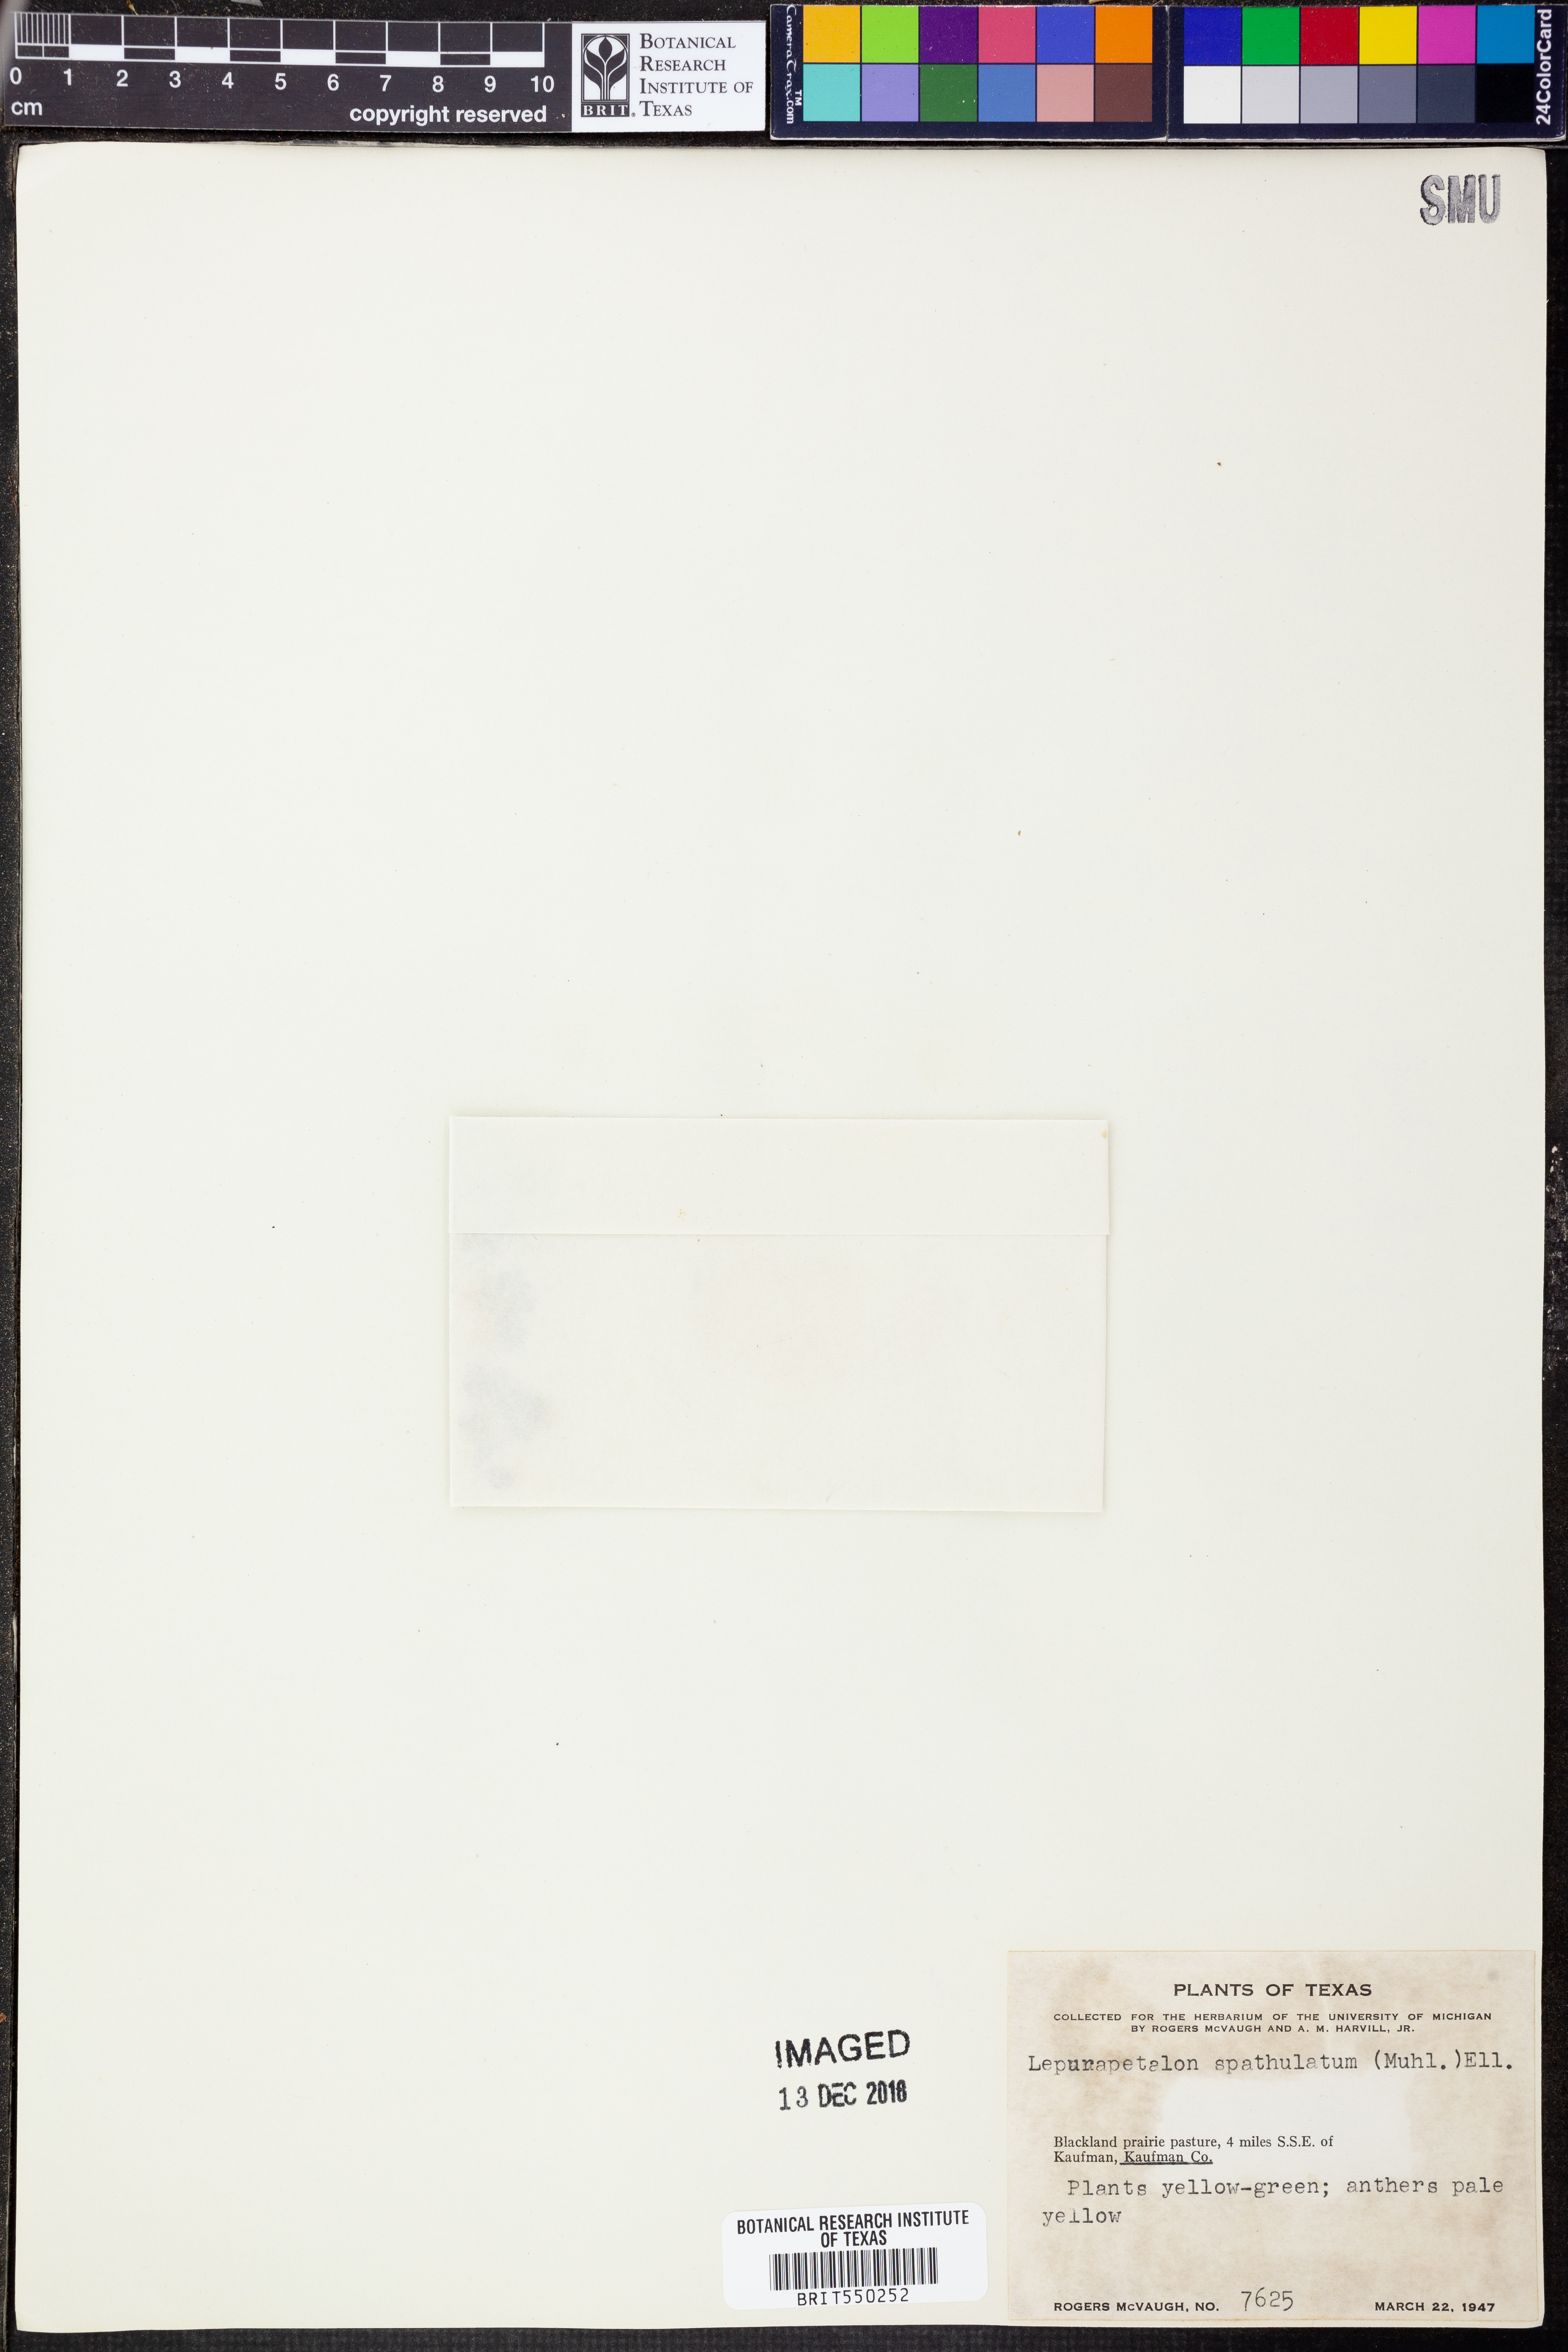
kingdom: Plantae
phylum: Tracheophyta
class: Magnoliopsida
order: Celastrales
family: Parnassiaceae
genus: Lepuropetalon
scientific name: Lepuropetalon spathulatum
